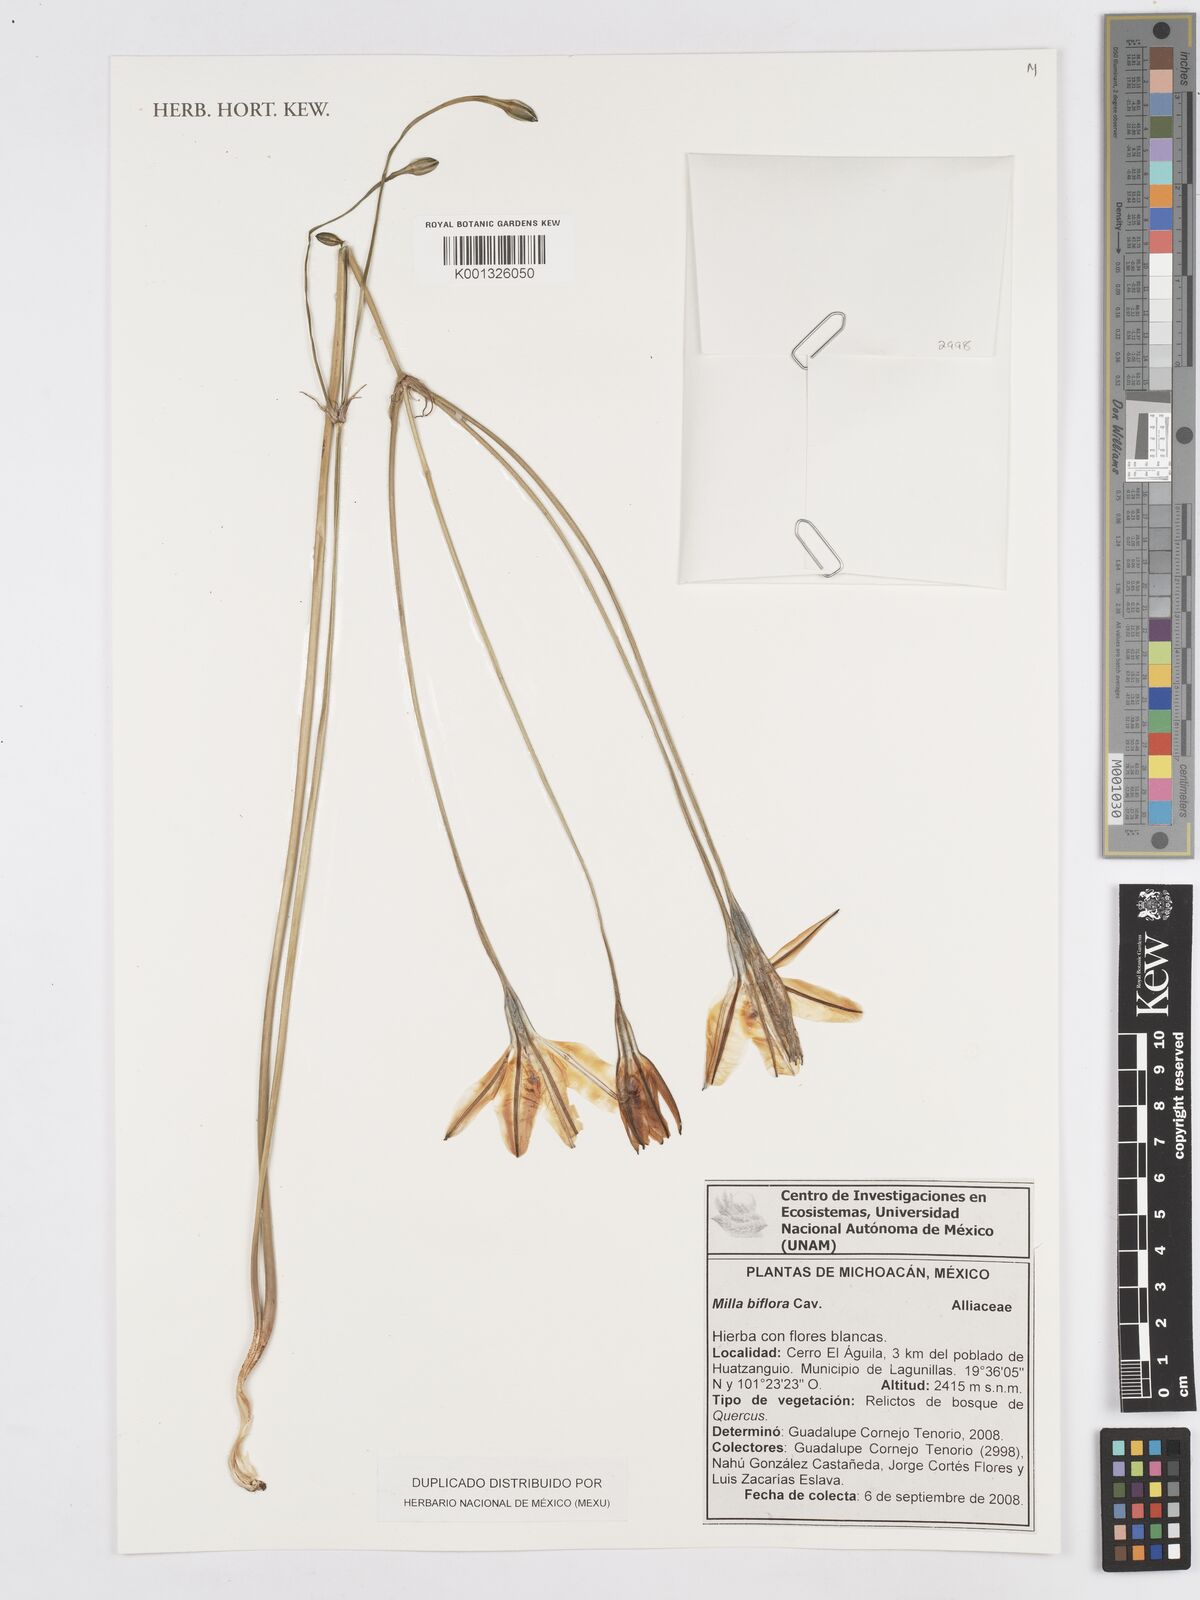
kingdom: Plantae
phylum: Tracheophyta
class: Liliopsida
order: Asparagales
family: Asparagaceae
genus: Milla
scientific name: Milla biflora
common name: Mexican-star
